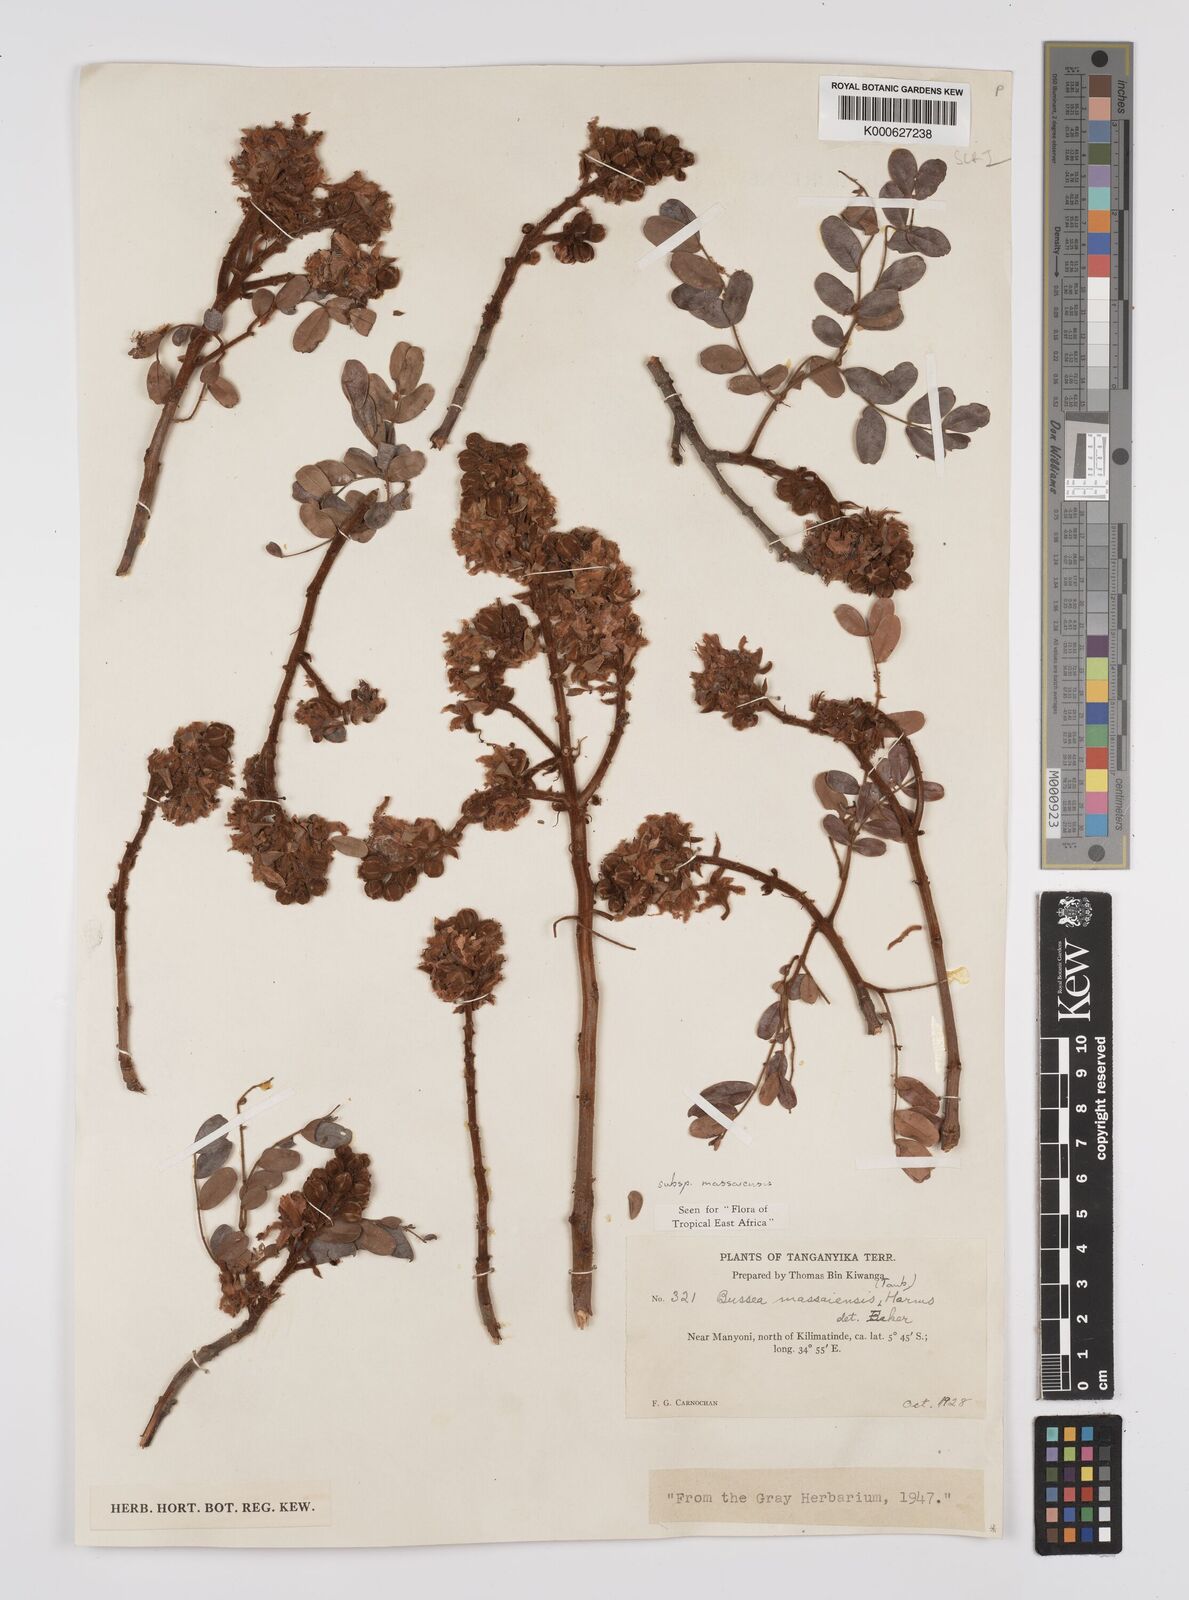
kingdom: Plantae
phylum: Tracheophyta
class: Magnoliopsida
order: Fabales
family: Fabaceae
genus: Bussea
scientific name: Bussea
